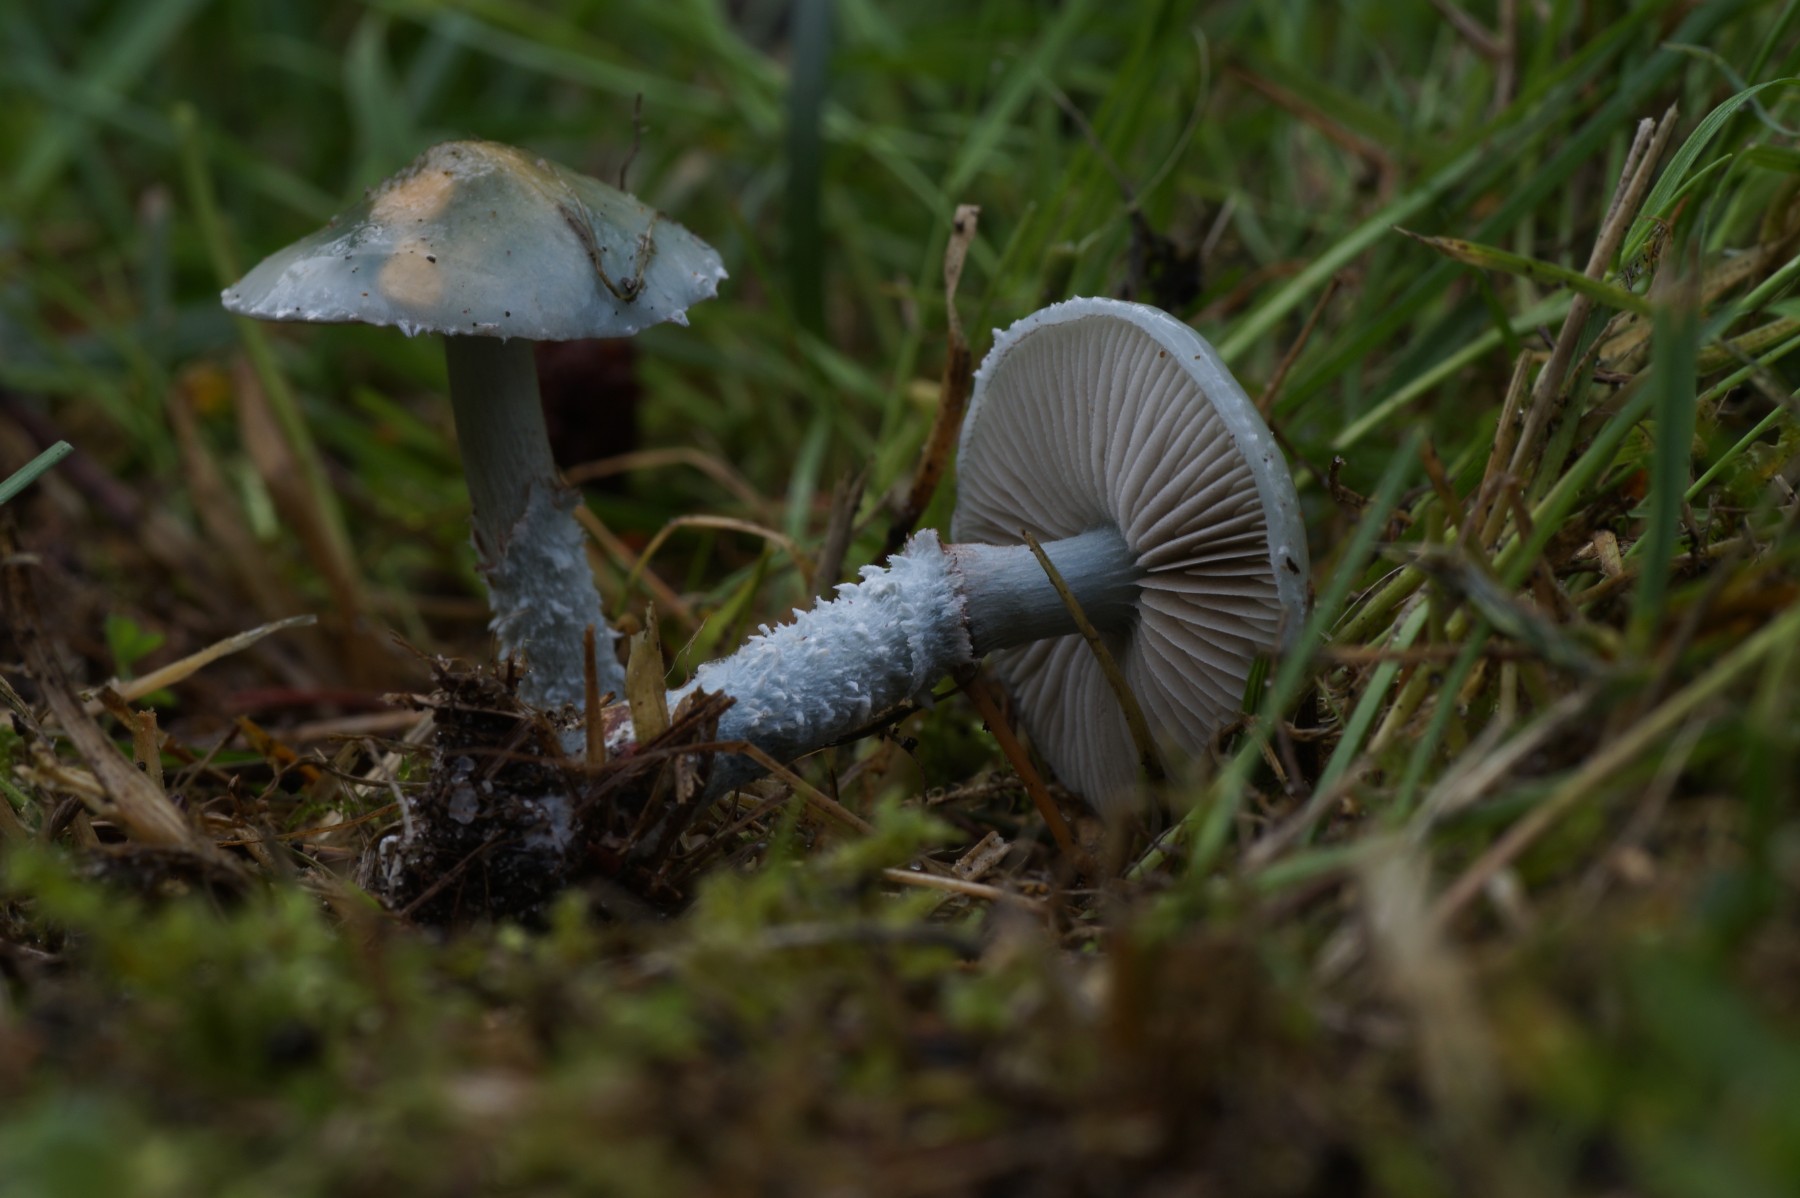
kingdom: Fungi
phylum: Basidiomycota
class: Agaricomycetes
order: Agaricales
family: Strophariaceae
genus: Stropharia
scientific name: Stropharia aeruginosa
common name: spanskgrøn bredblad
